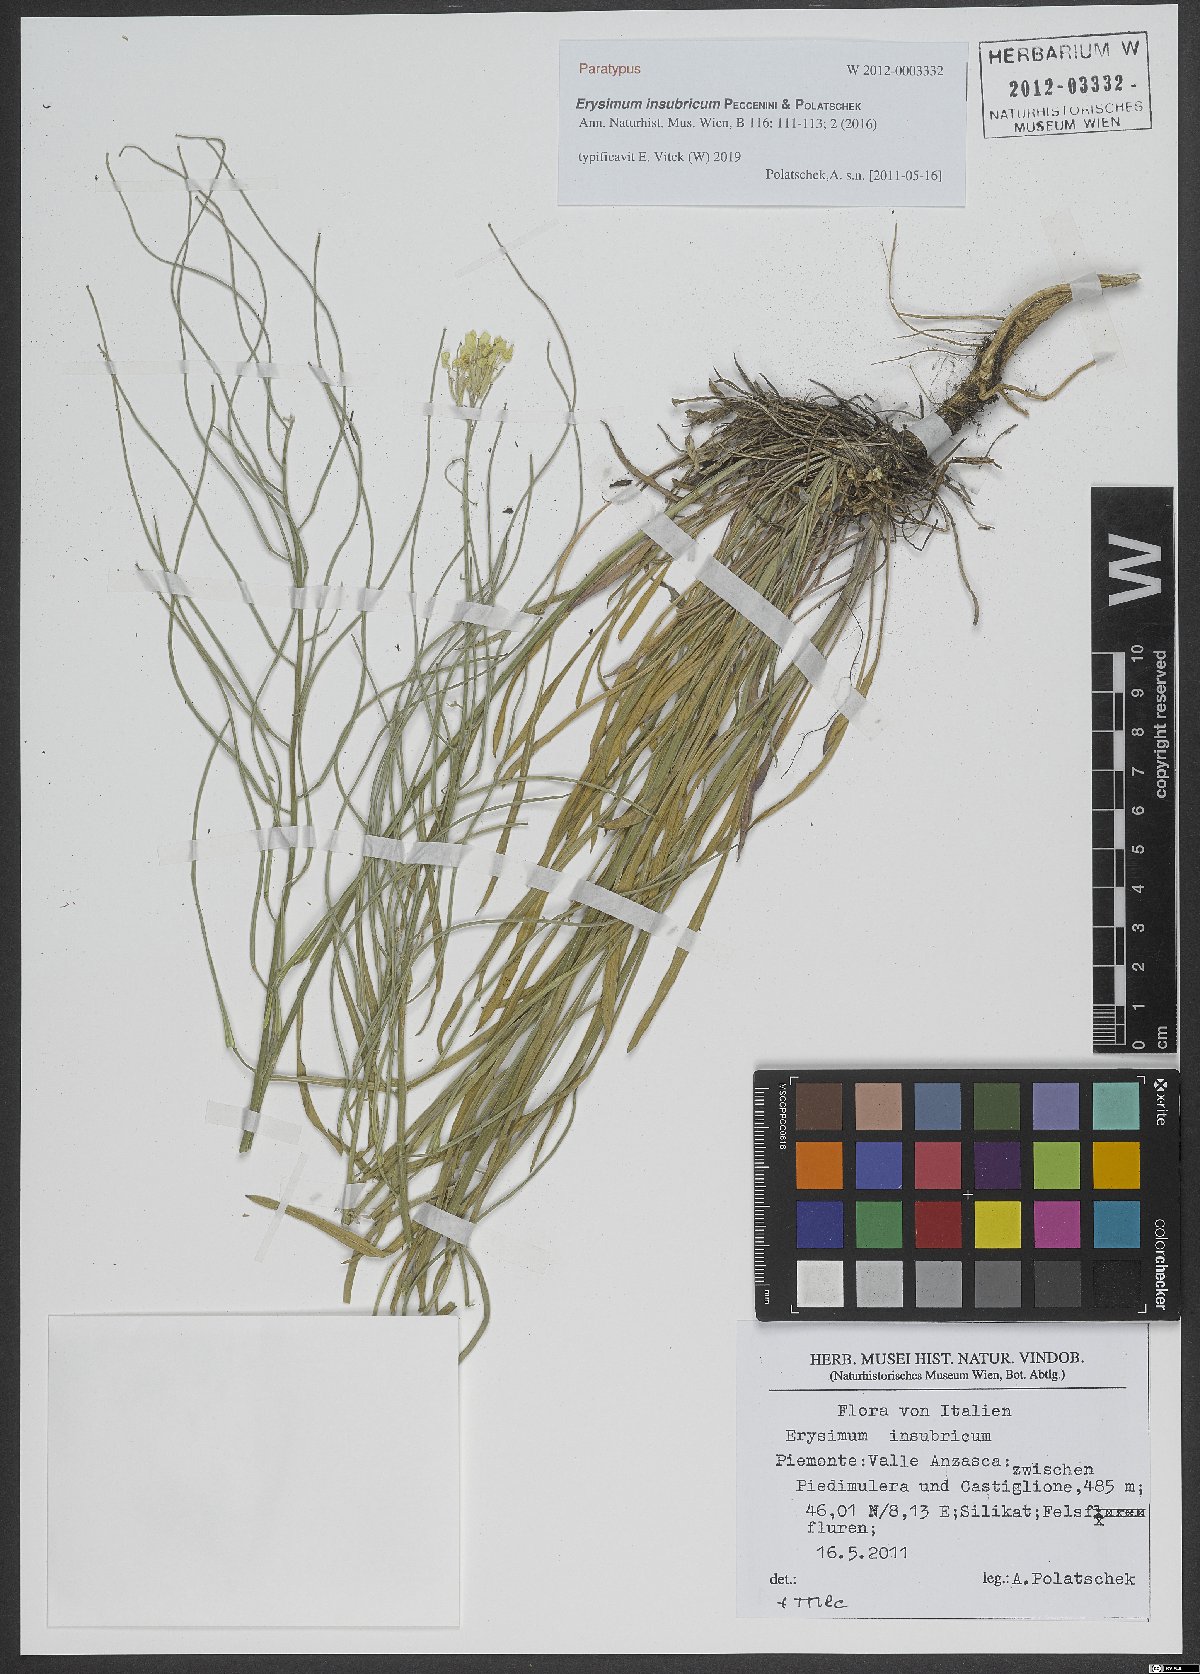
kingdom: Plantae
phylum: Tracheophyta
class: Magnoliopsida
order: Brassicales
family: Brassicaceae
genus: Erysimum
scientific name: Erysimum insubricum
